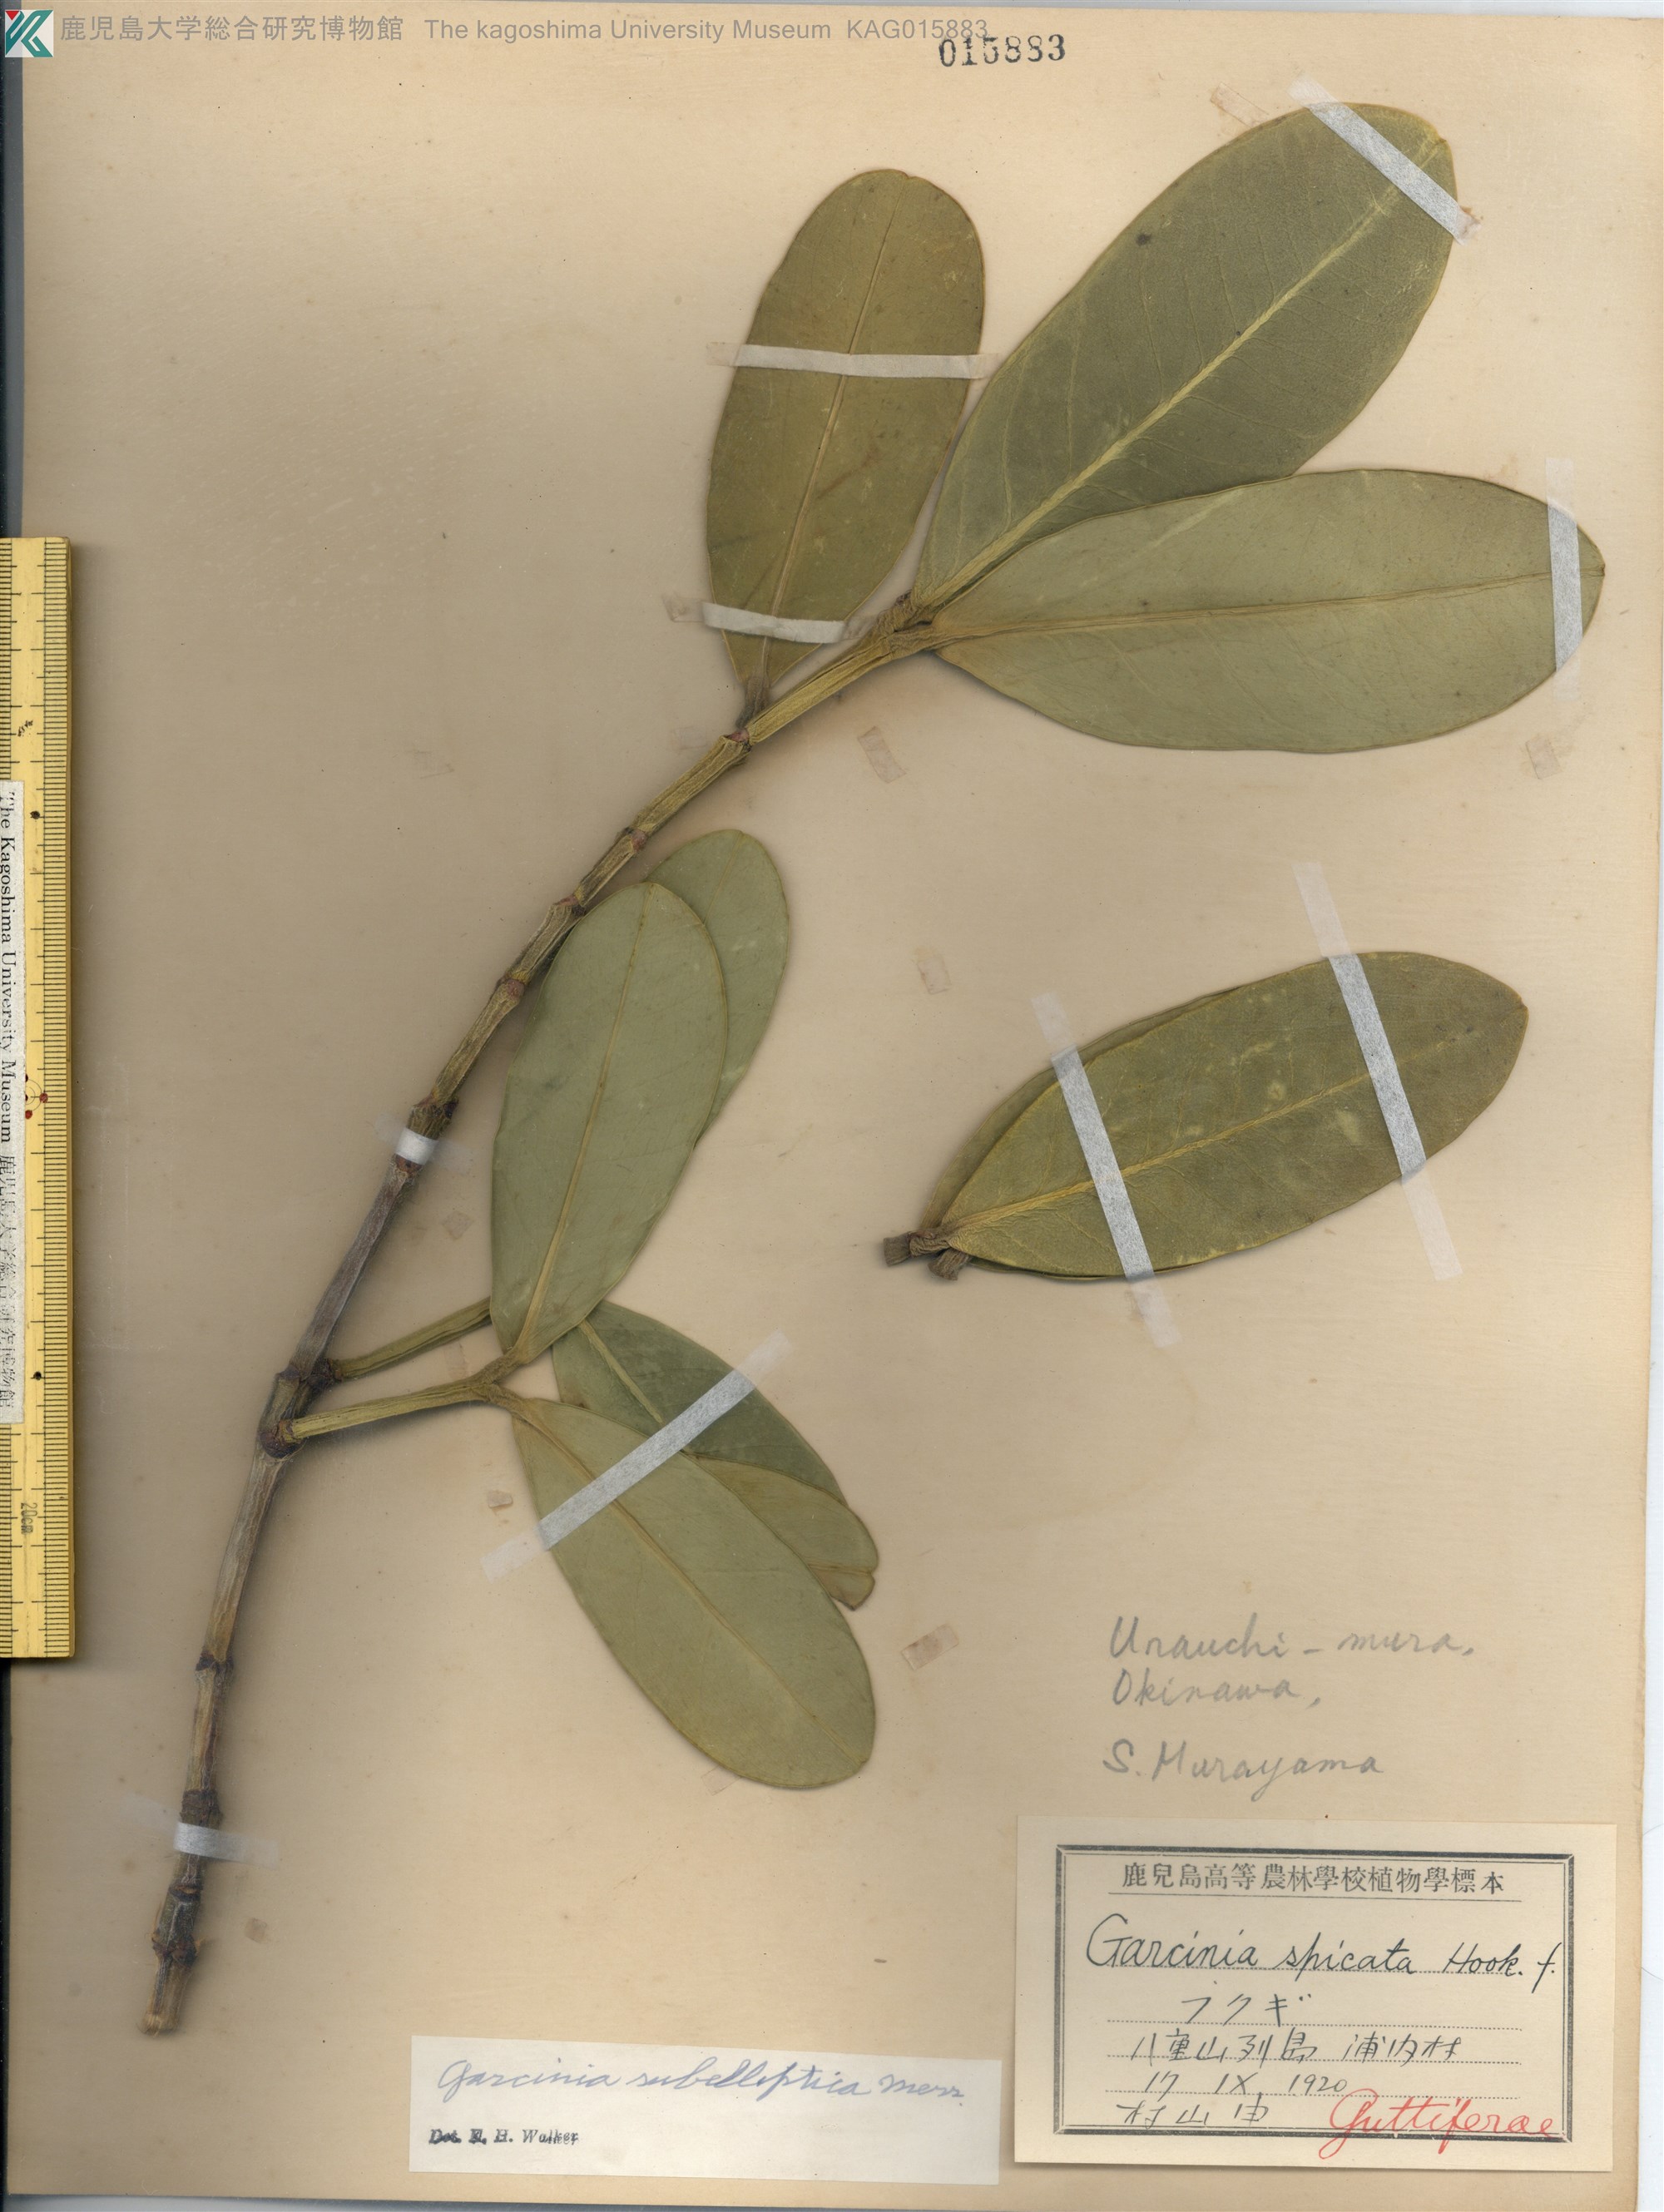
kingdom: Plantae
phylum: Tracheophyta
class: Magnoliopsida
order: Malpighiales
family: Clusiaceae
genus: Garcinia
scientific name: Garcinia subelliptica
